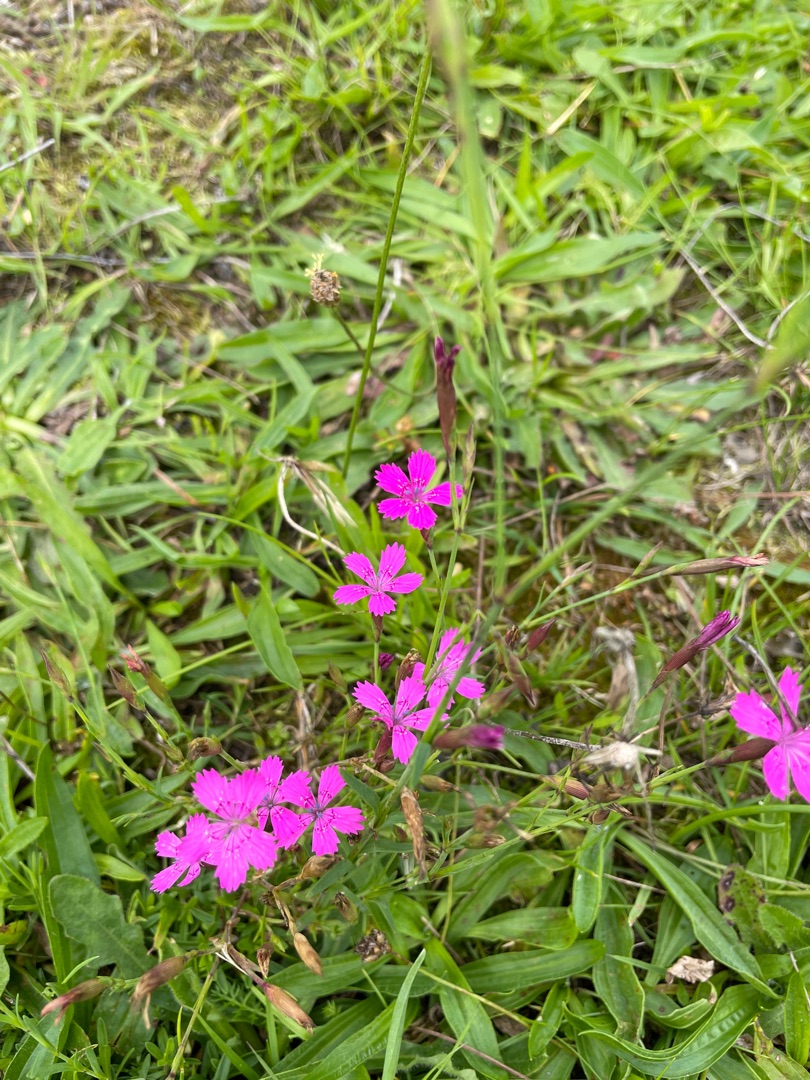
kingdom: Plantae
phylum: Tracheophyta
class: Magnoliopsida
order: Caryophyllales
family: Caryophyllaceae
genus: Dianthus
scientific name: Dianthus deltoides
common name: Bakke-nellike
